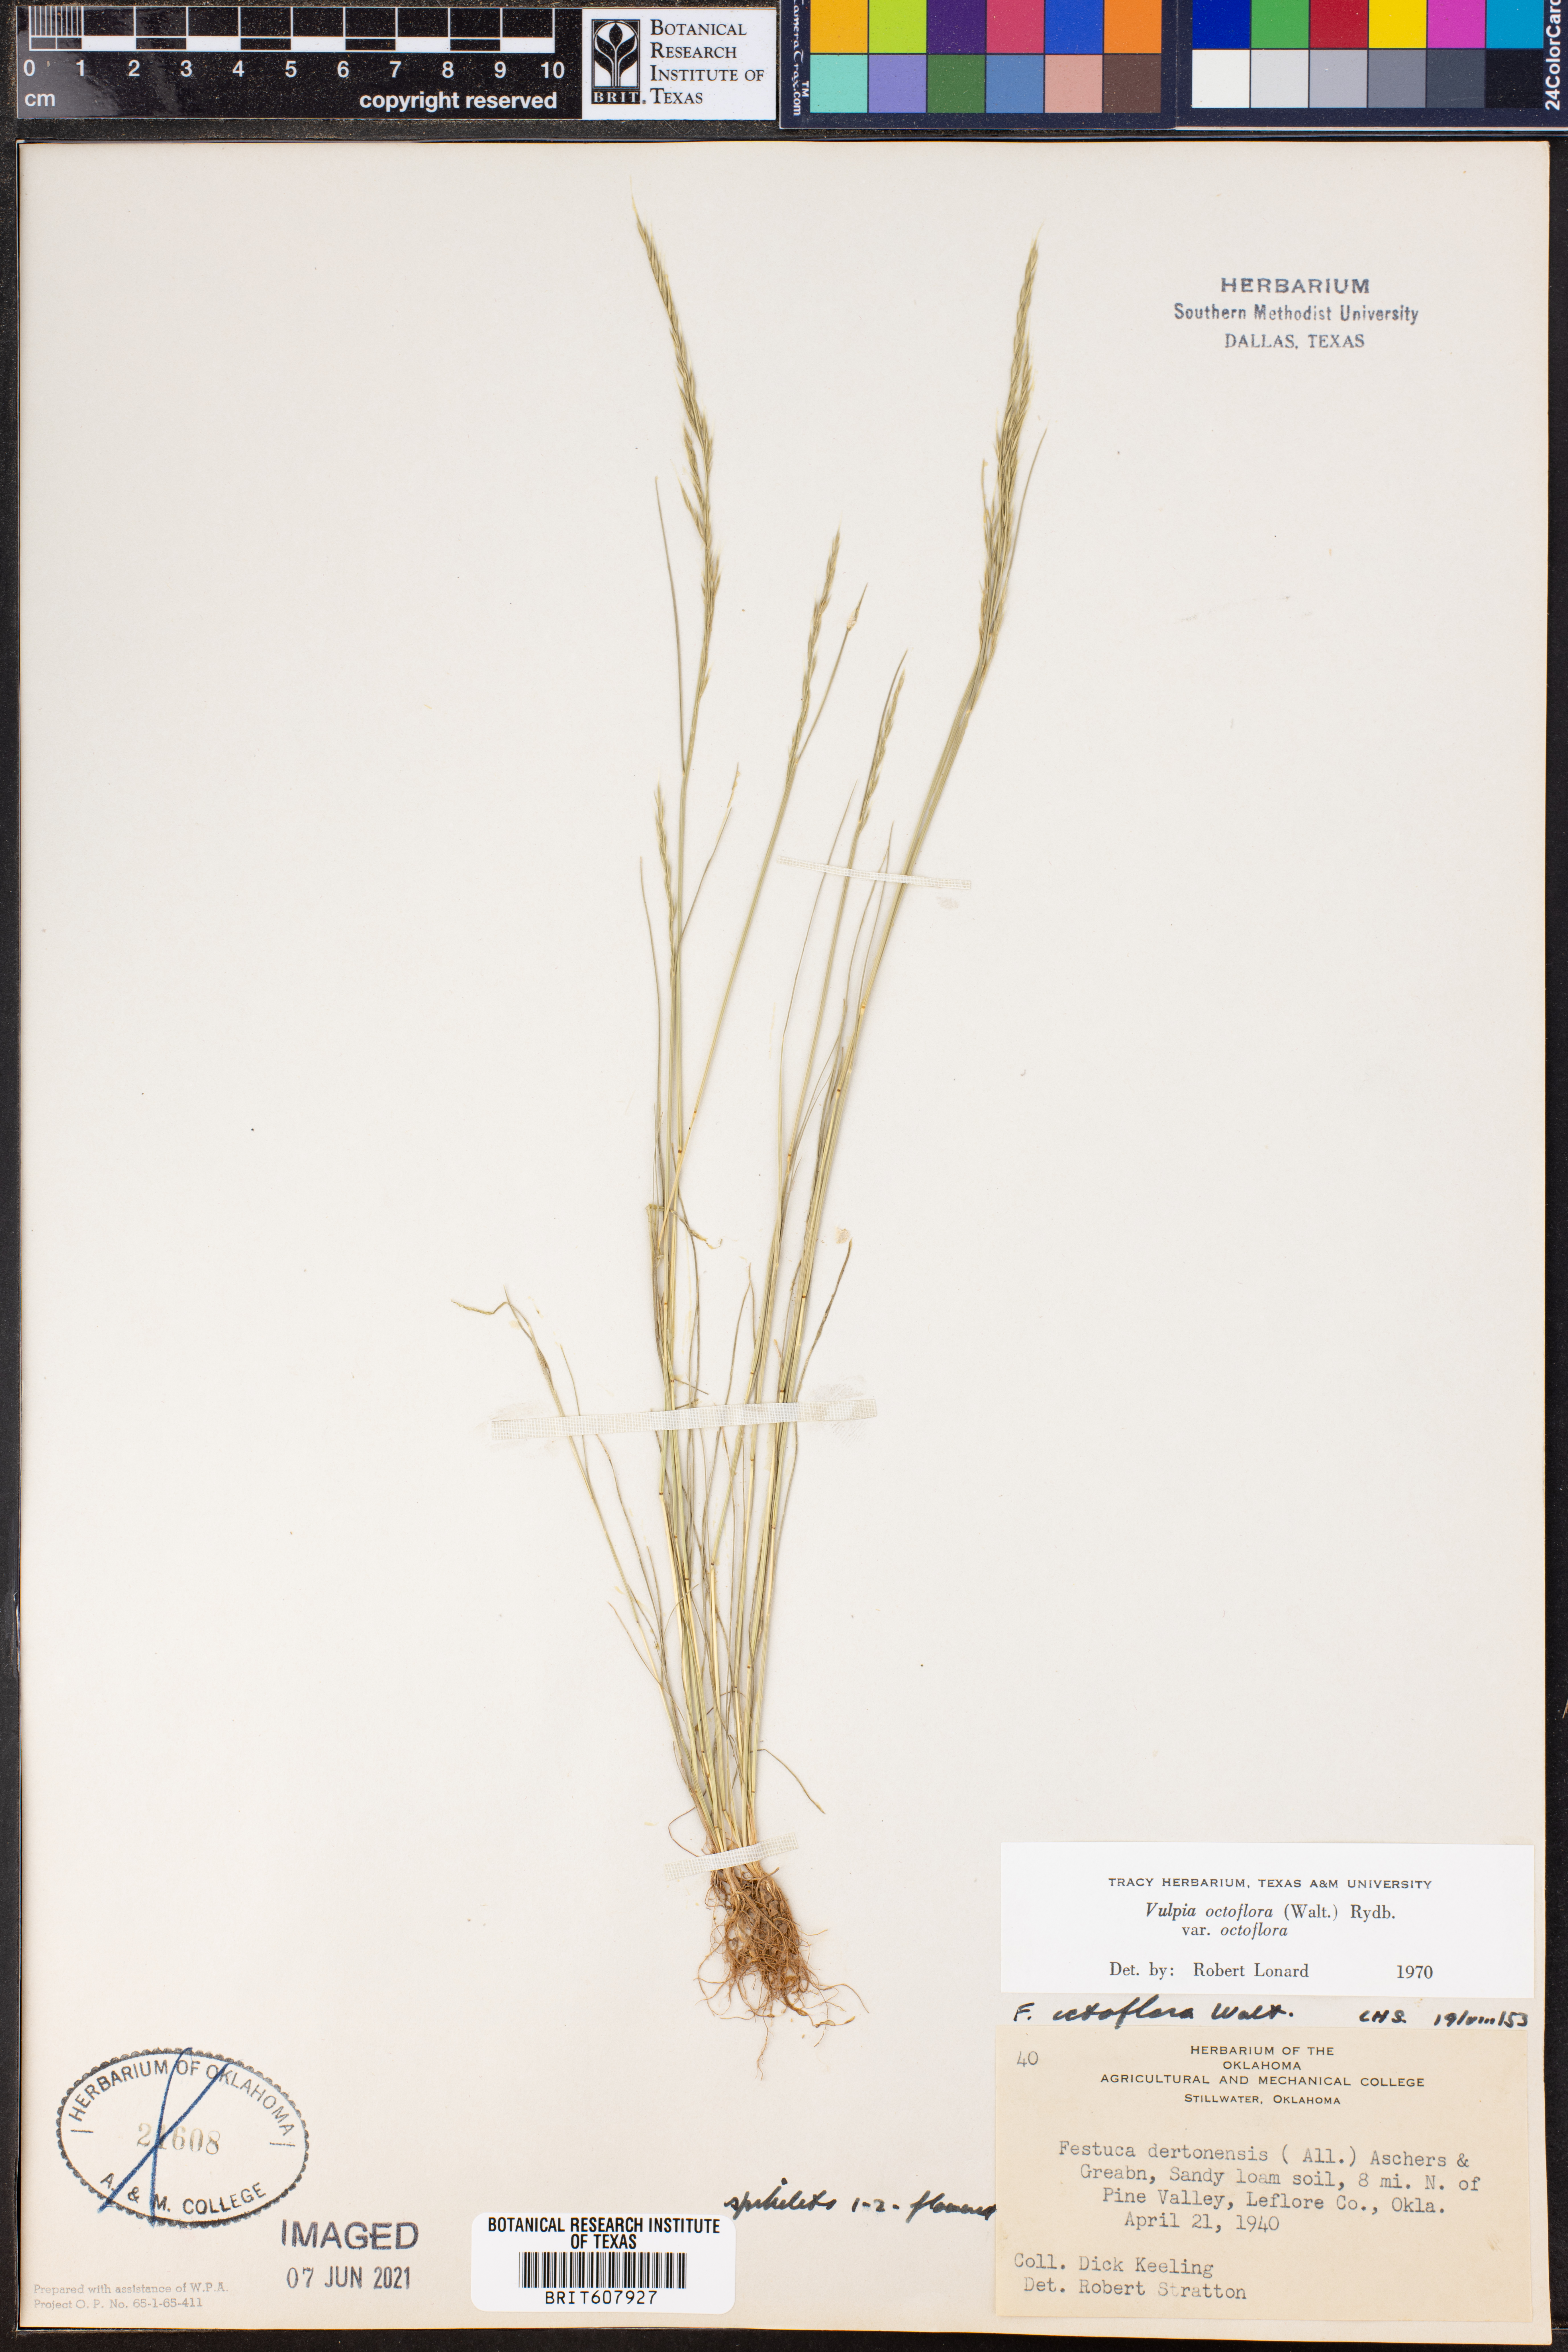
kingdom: Plantae
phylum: Tracheophyta
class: Liliopsida
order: Poales
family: Poaceae
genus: Festuca
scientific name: Festuca octoflora
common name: Sixweeks grass
